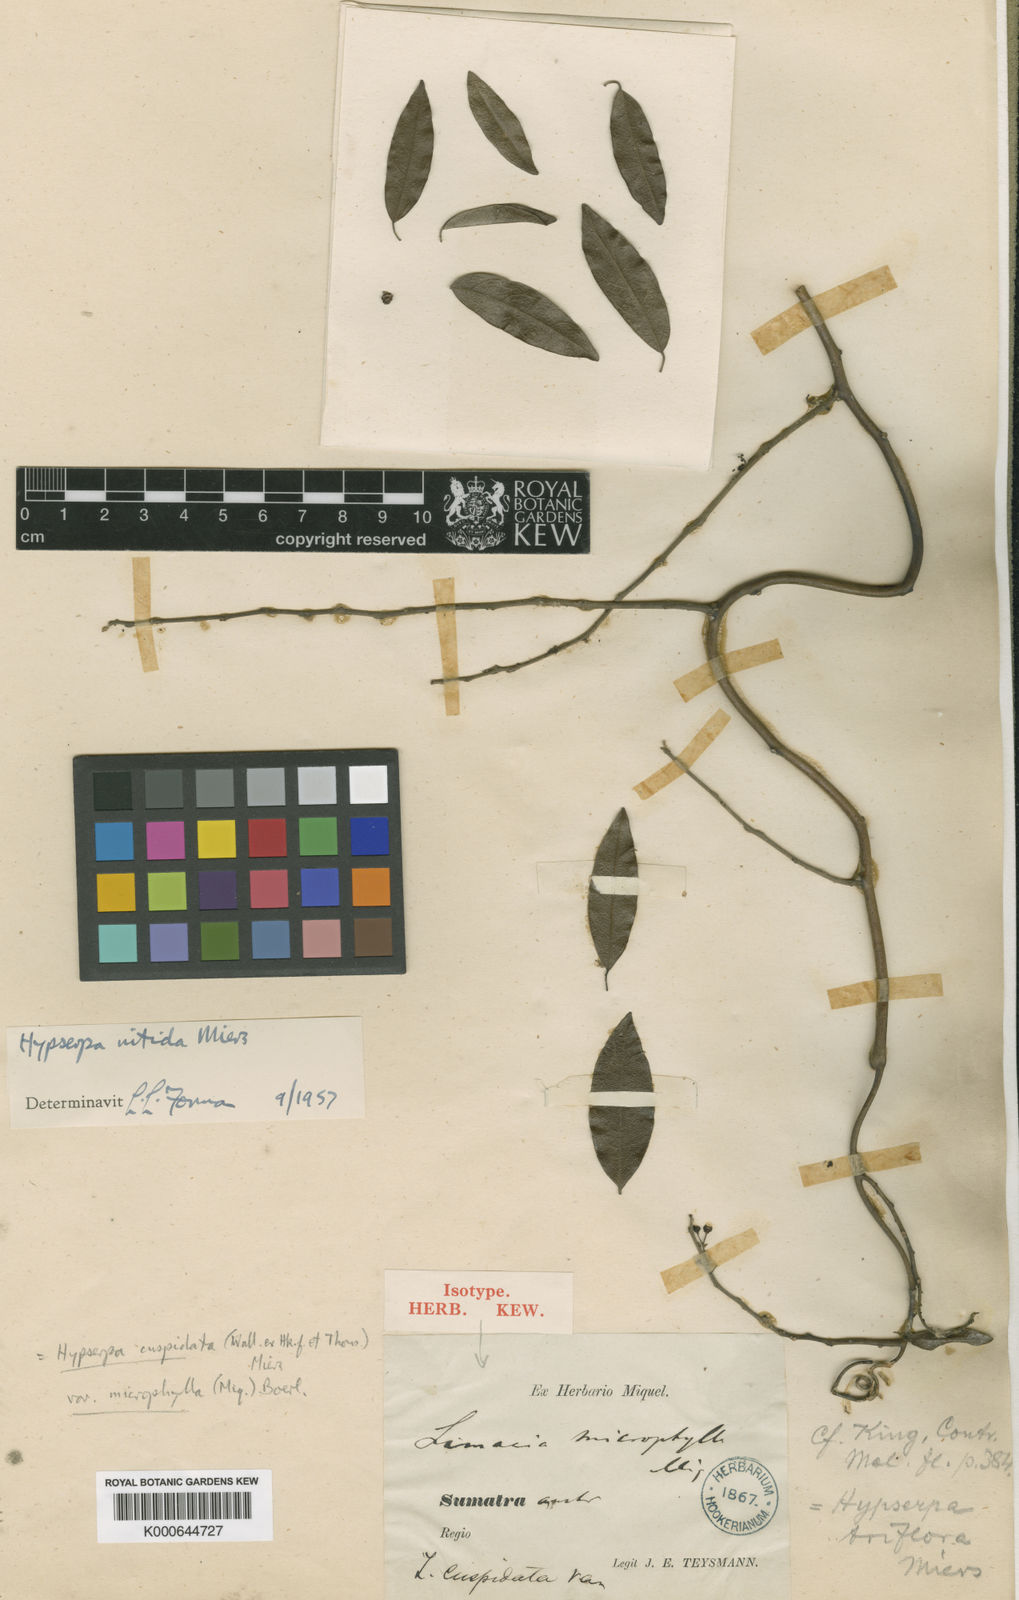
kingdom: Plantae
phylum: Tracheophyta
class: Magnoliopsida
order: Ranunculales
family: Menispermaceae
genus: Hypserpa
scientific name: Hypserpa
